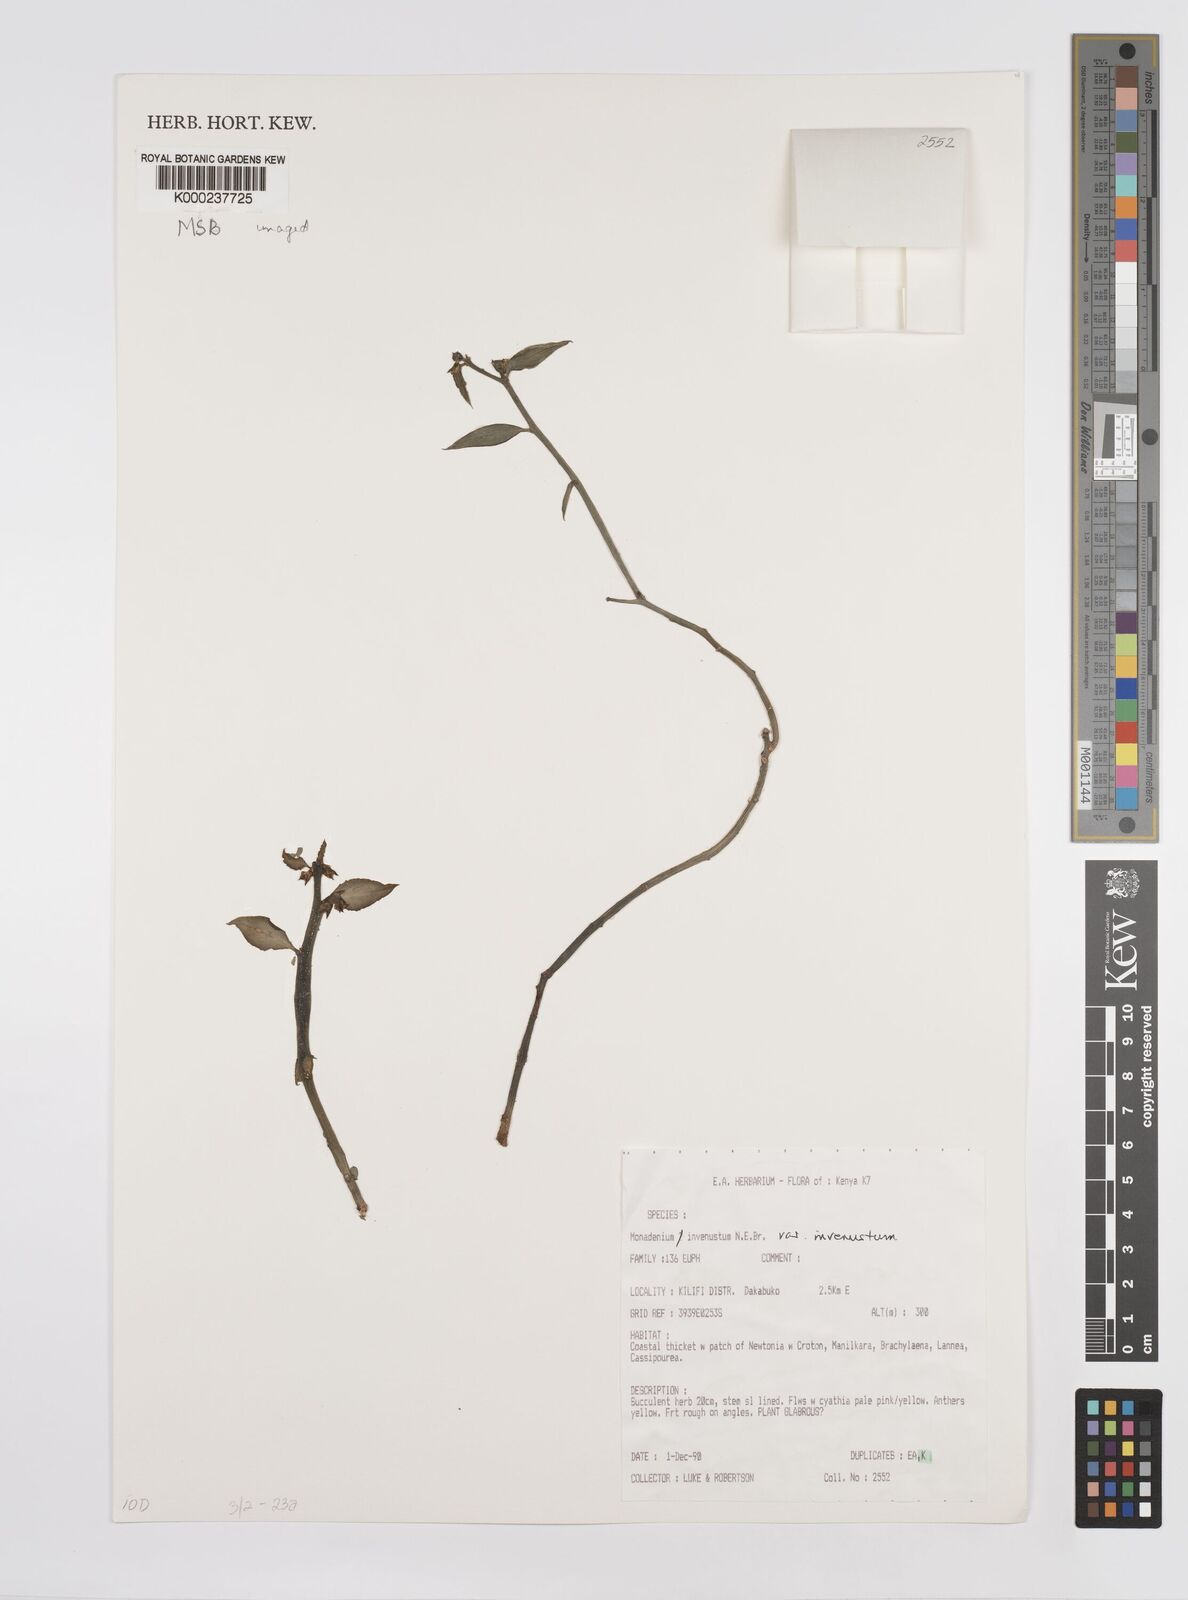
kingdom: Plantae
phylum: Tracheophyta
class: Magnoliopsida
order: Malpighiales
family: Euphorbiaceae
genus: Euphorbia
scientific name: Euphorbia invenusta
